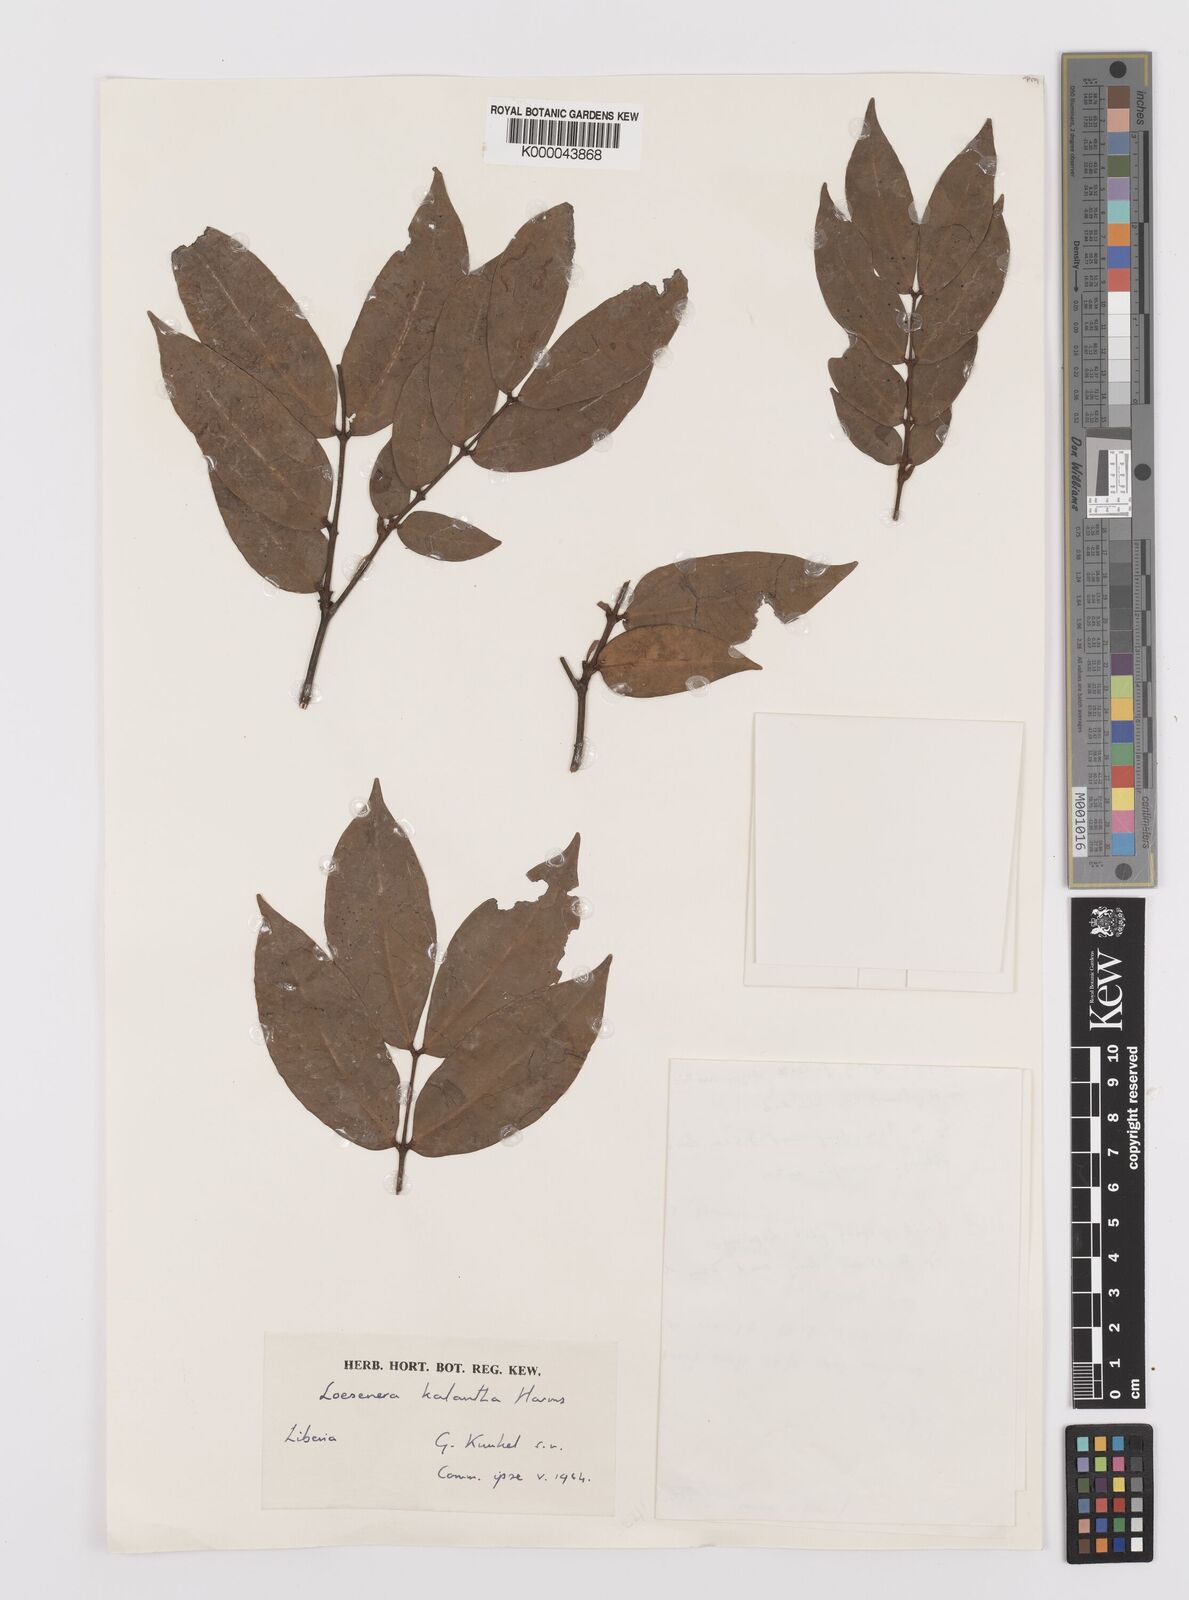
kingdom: Plantae
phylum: Tracheophyta
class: Magnoliopsida
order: Fabales
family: Fabaceae
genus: Loesenera
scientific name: Loesenera kalantha
